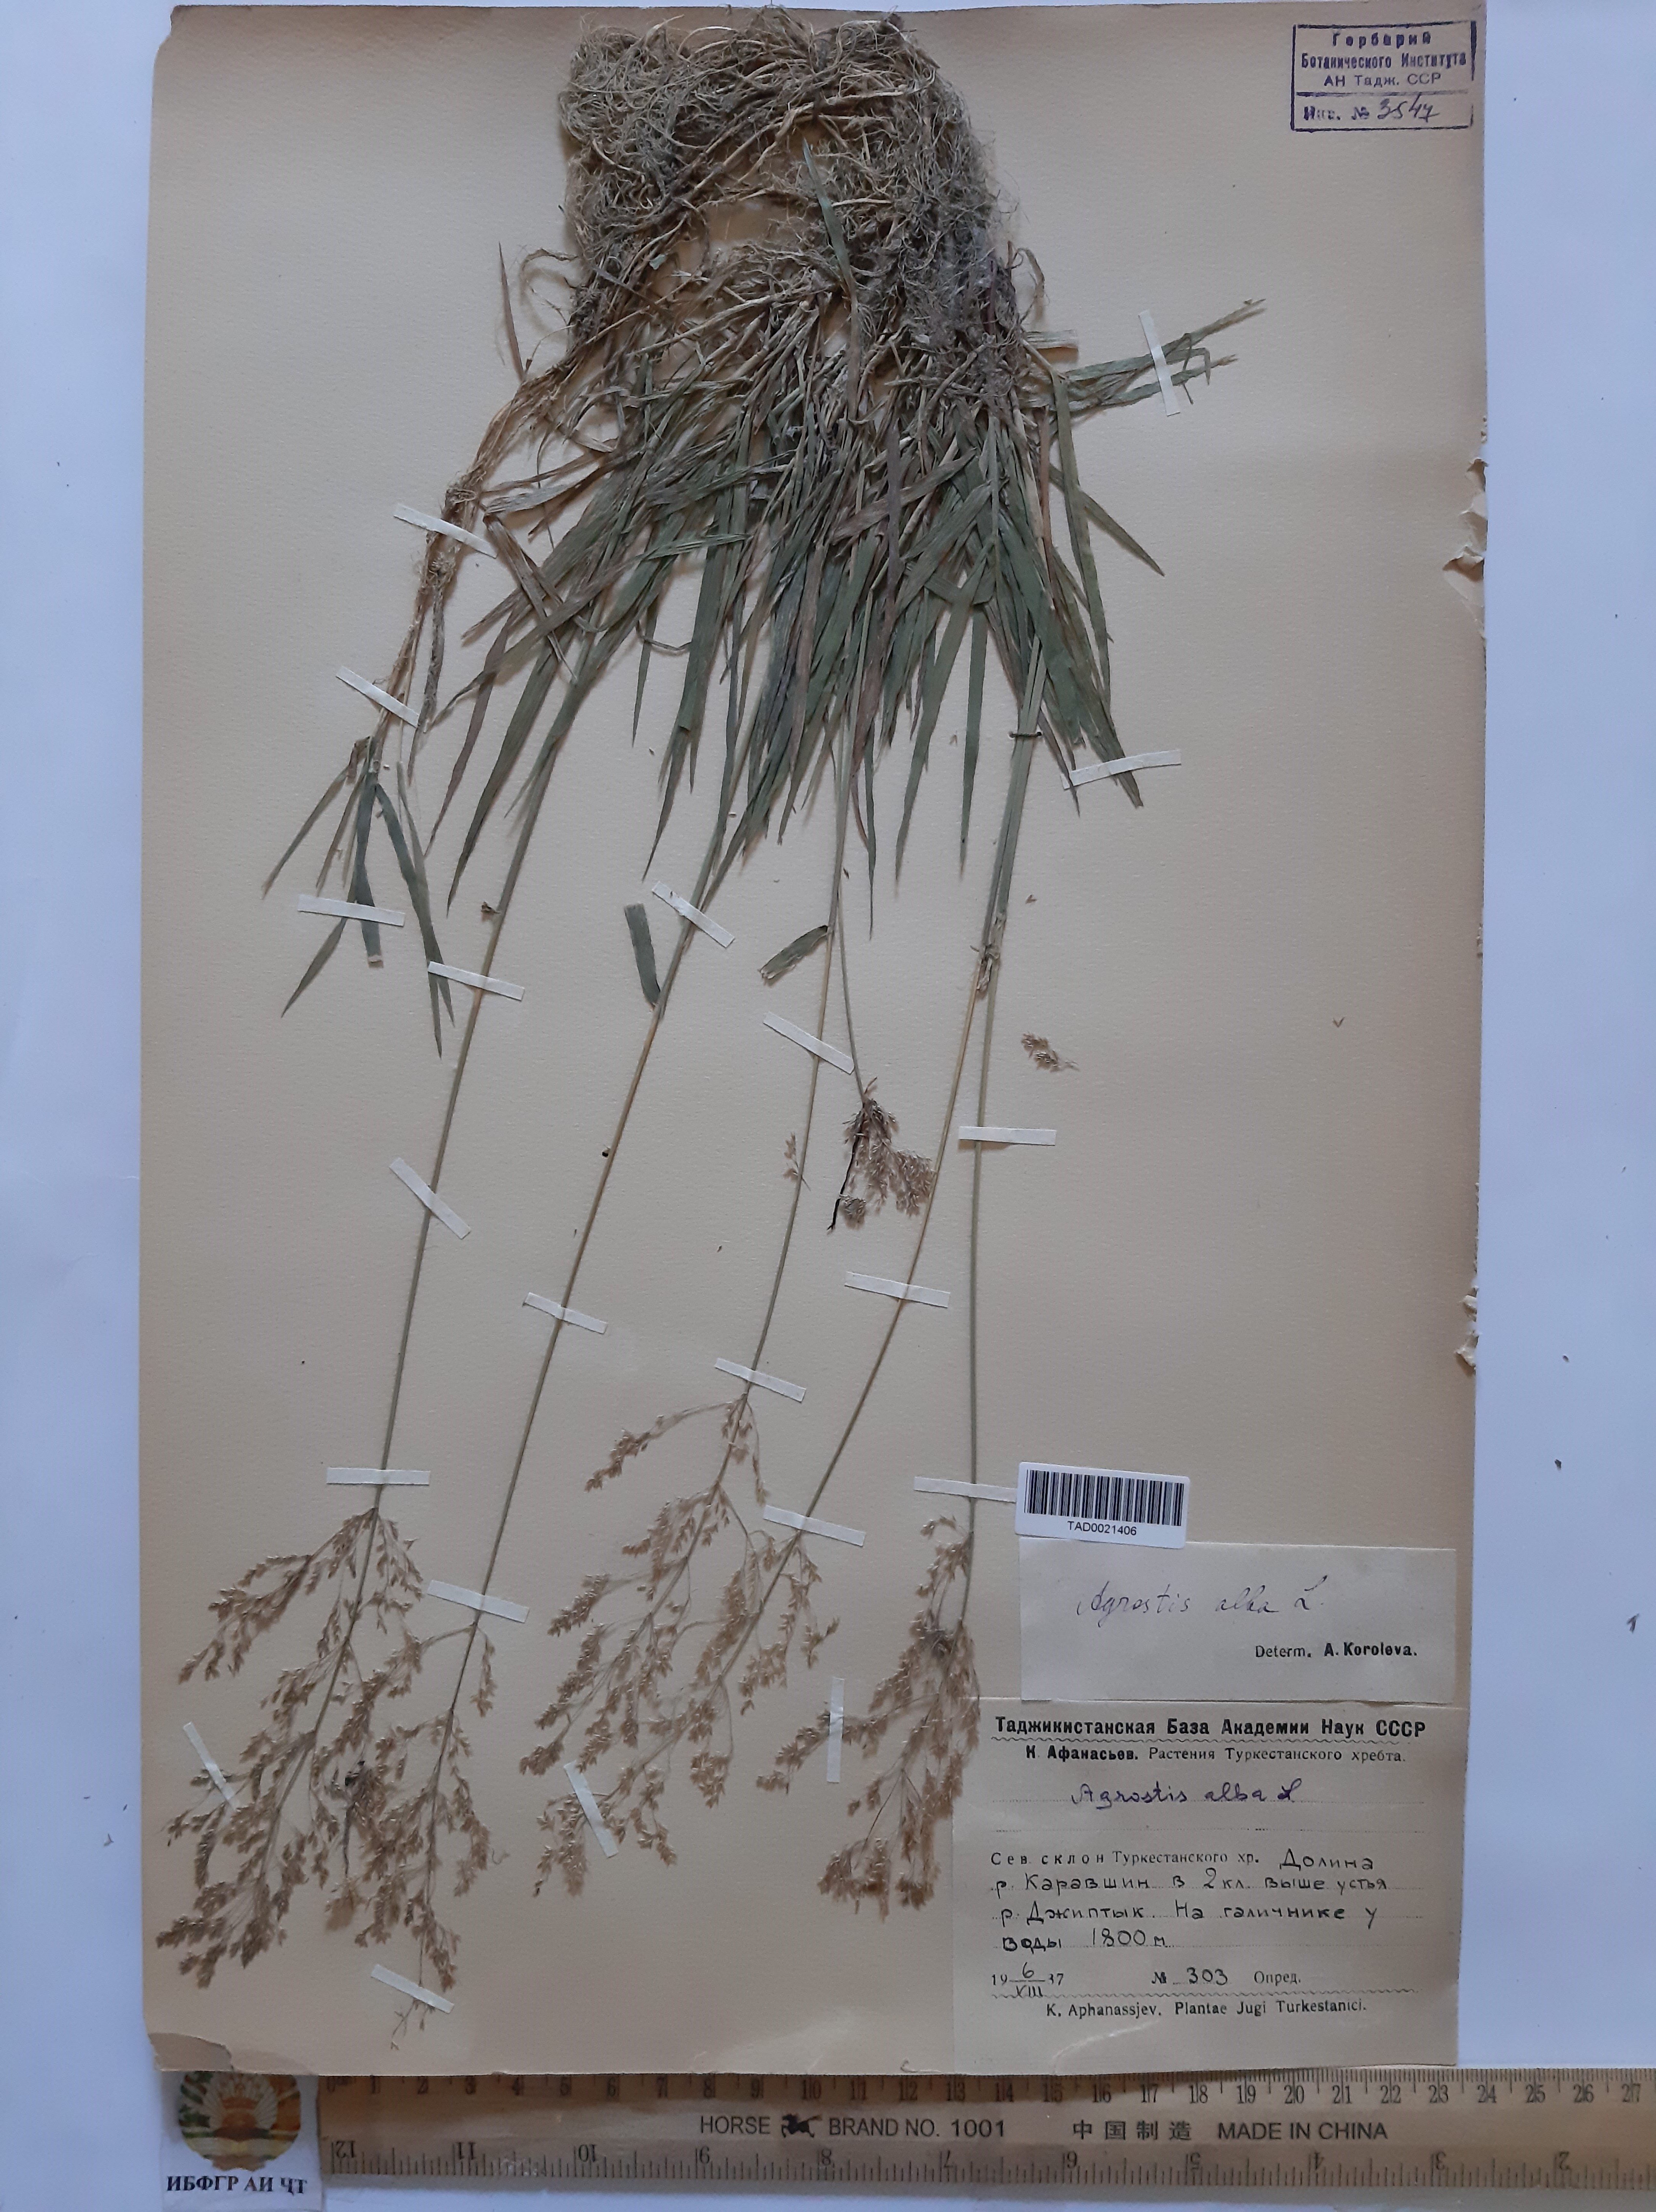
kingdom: Plantae
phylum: Tracheophyta
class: Liliopsida
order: Poales
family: Poaceae
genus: Poa
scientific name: Poa nemoralis
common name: Wood bluegrass
